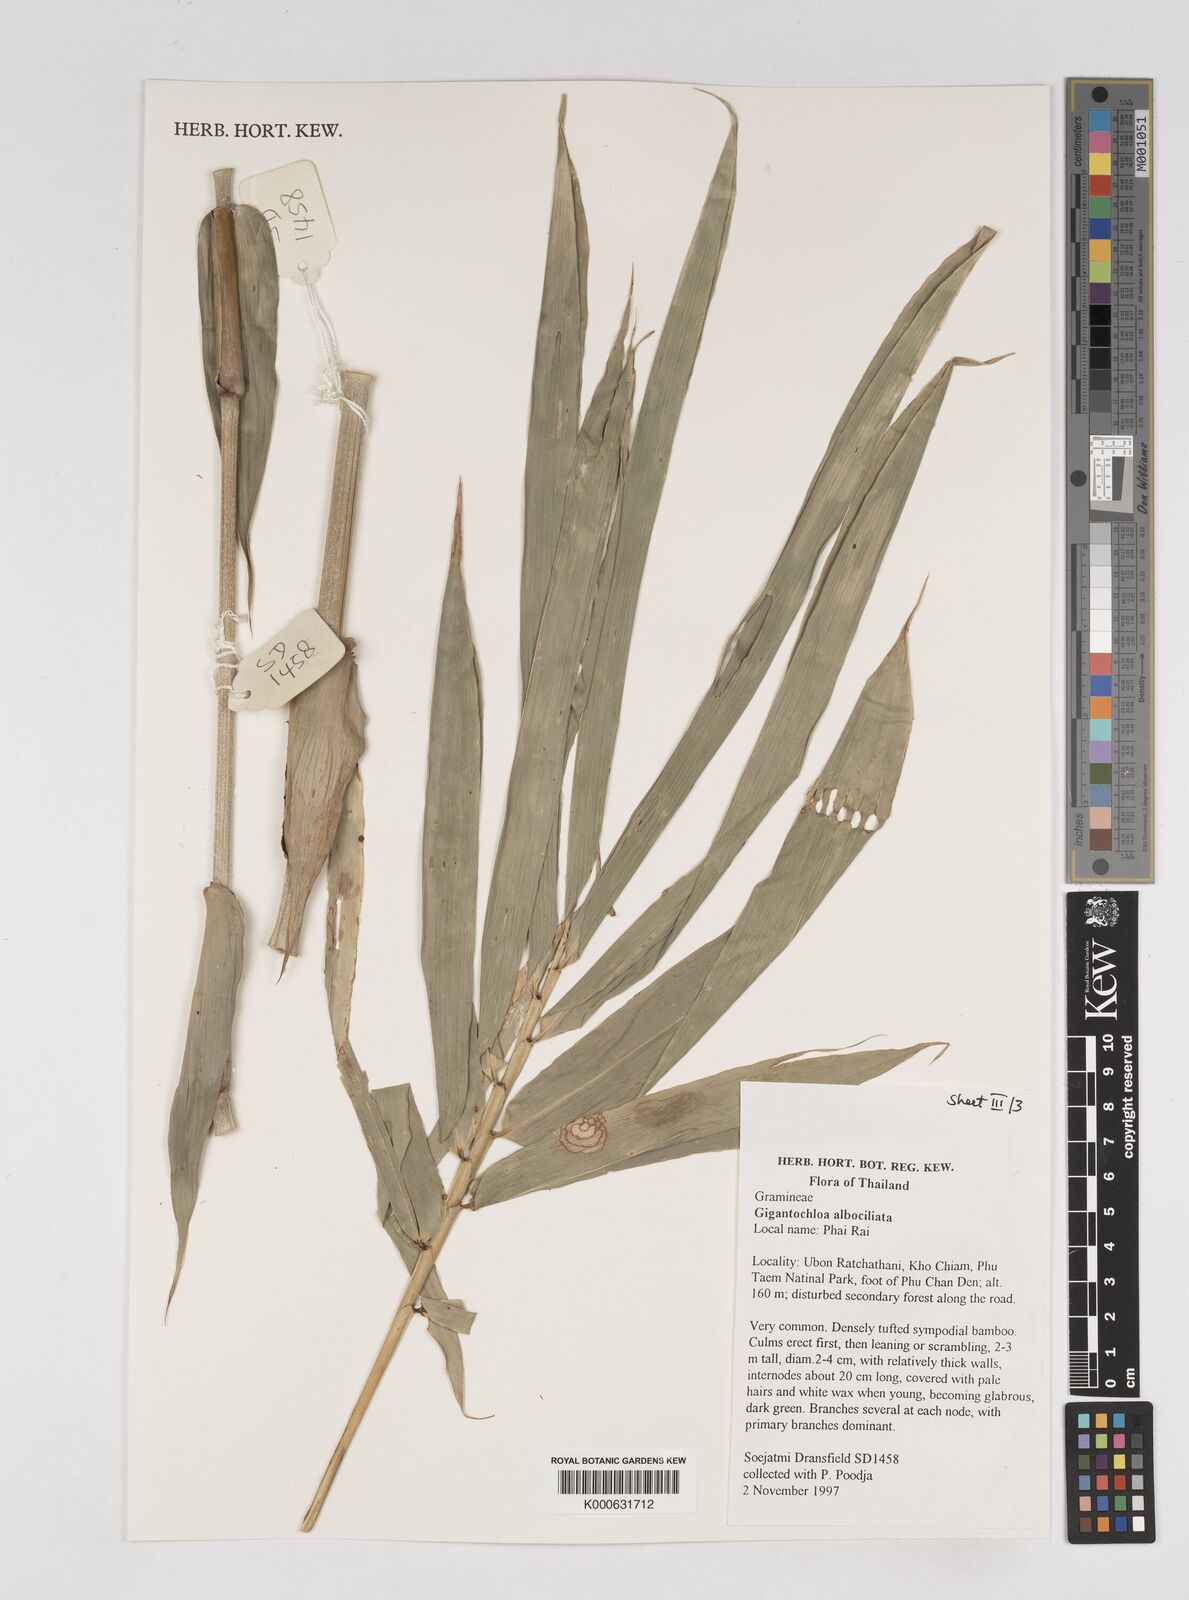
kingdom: Plantae
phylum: Tracheophyta
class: Liliopsida
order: Poales
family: Poaceae
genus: Gigantochloa
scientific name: Gigantochloa albociliata
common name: White-fringe gigantochloa
